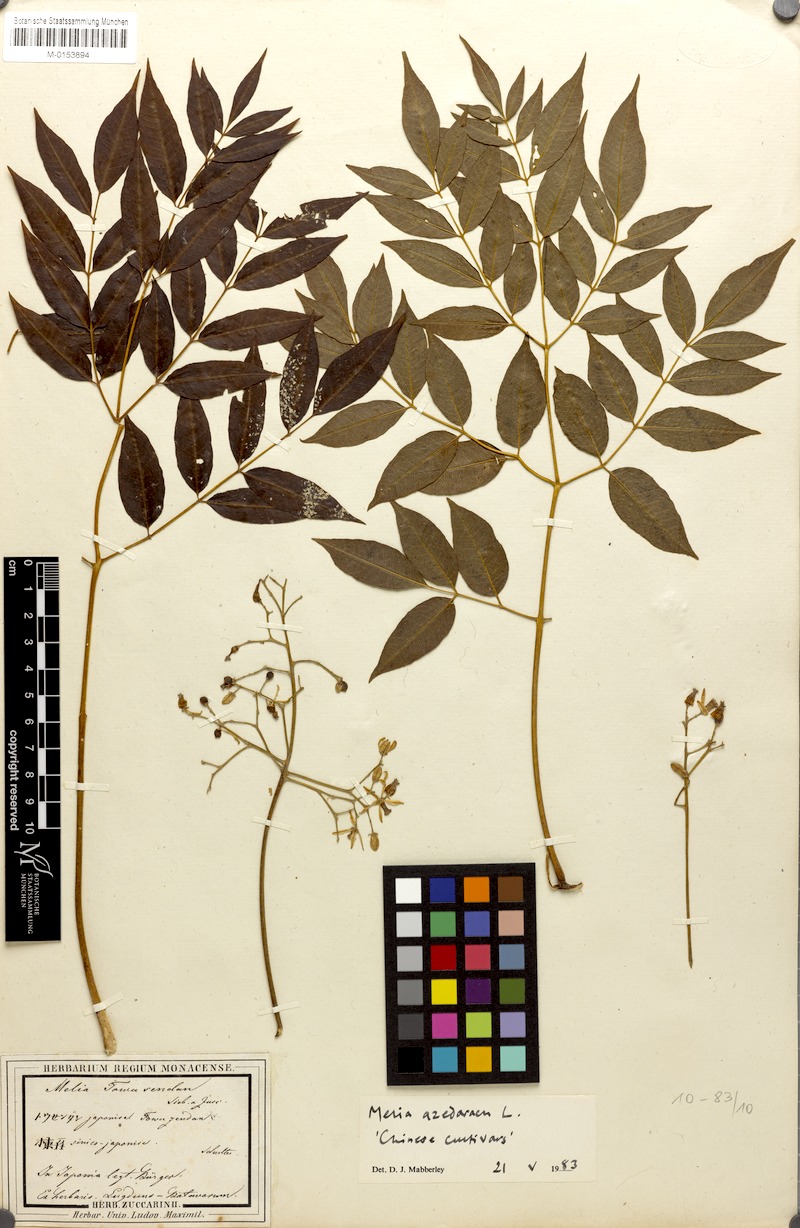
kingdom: Plantae
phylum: Tracheophyta
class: Magnoliopsida
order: Sapindales
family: Meliaceae
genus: Melia
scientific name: Melia azedarach
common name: Chinaberrytree
